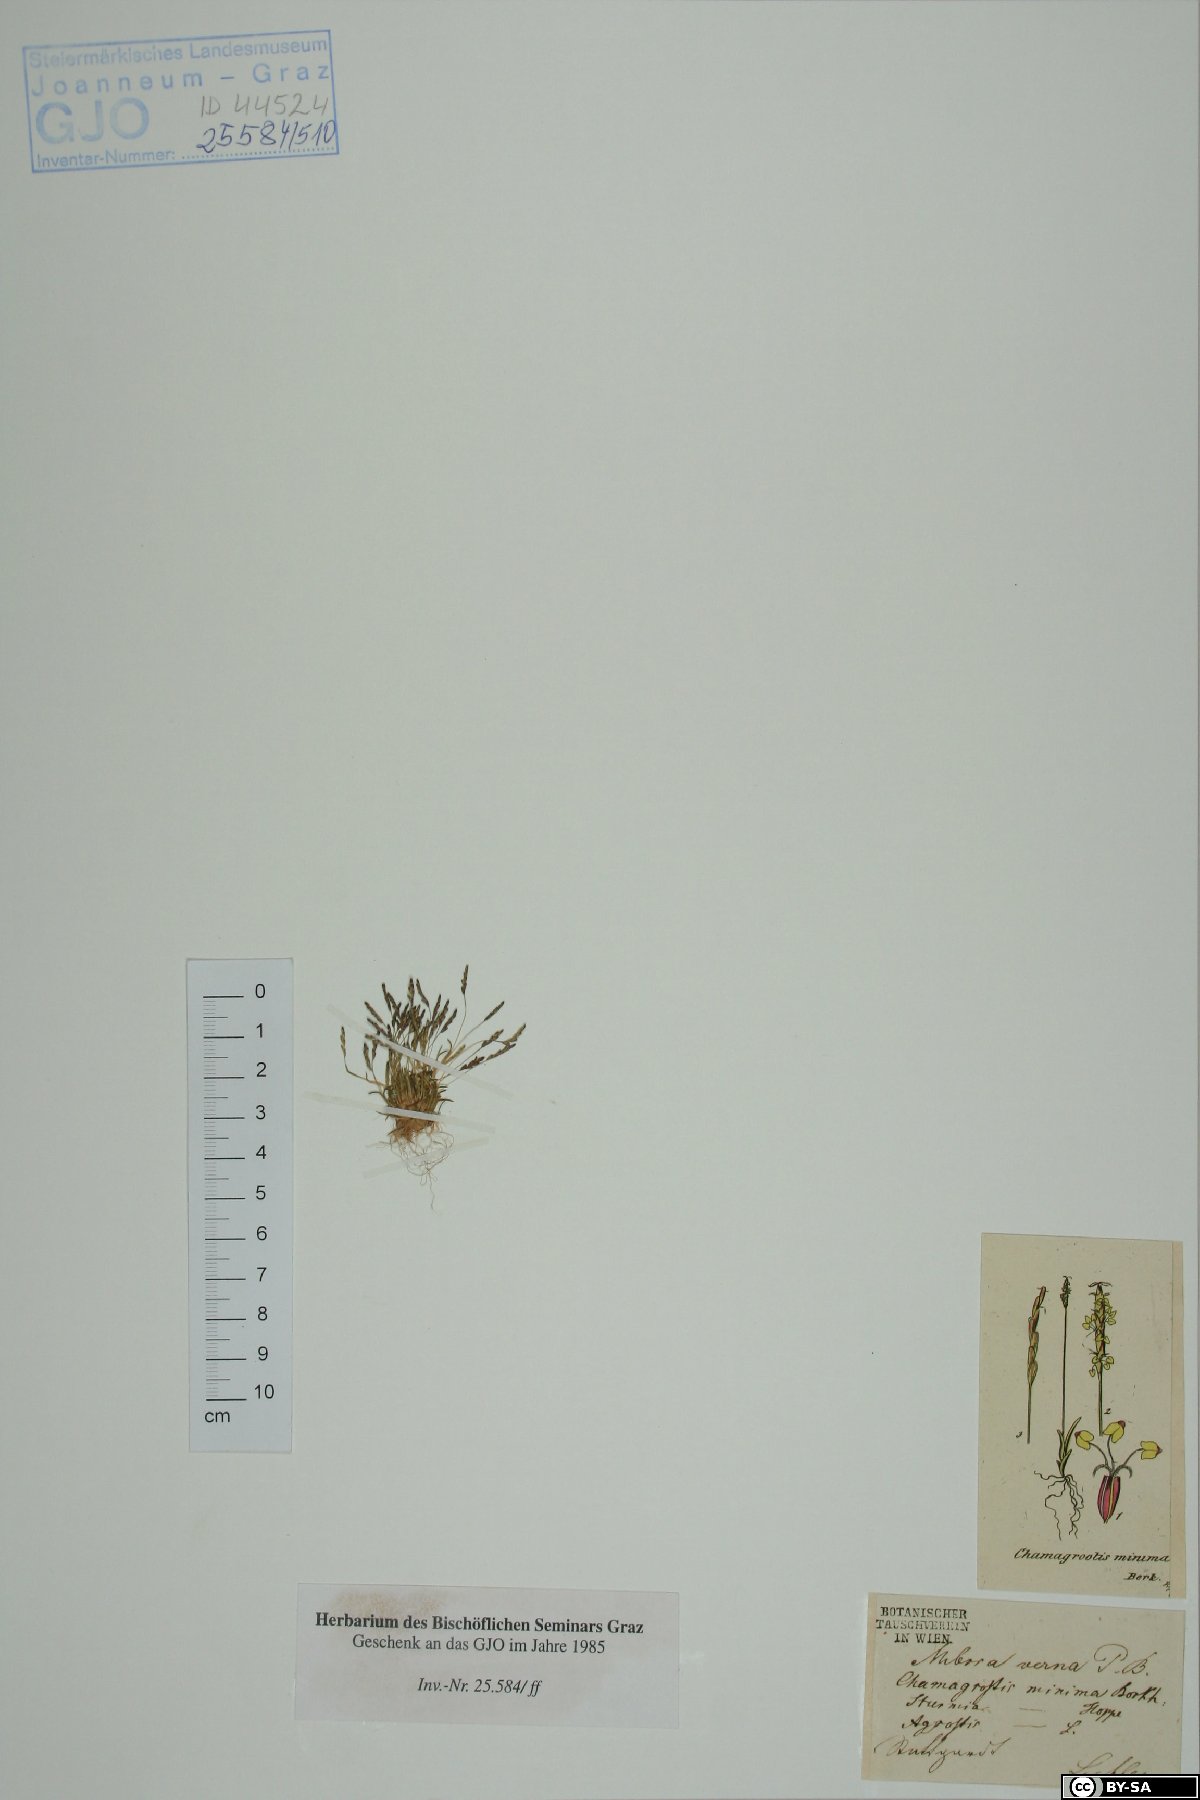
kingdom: Plantae
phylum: Tracheophyta
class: Liliopsida
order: Poales
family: Poaceae
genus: Mibora
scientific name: Mibora minima
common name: Early sand-grass
